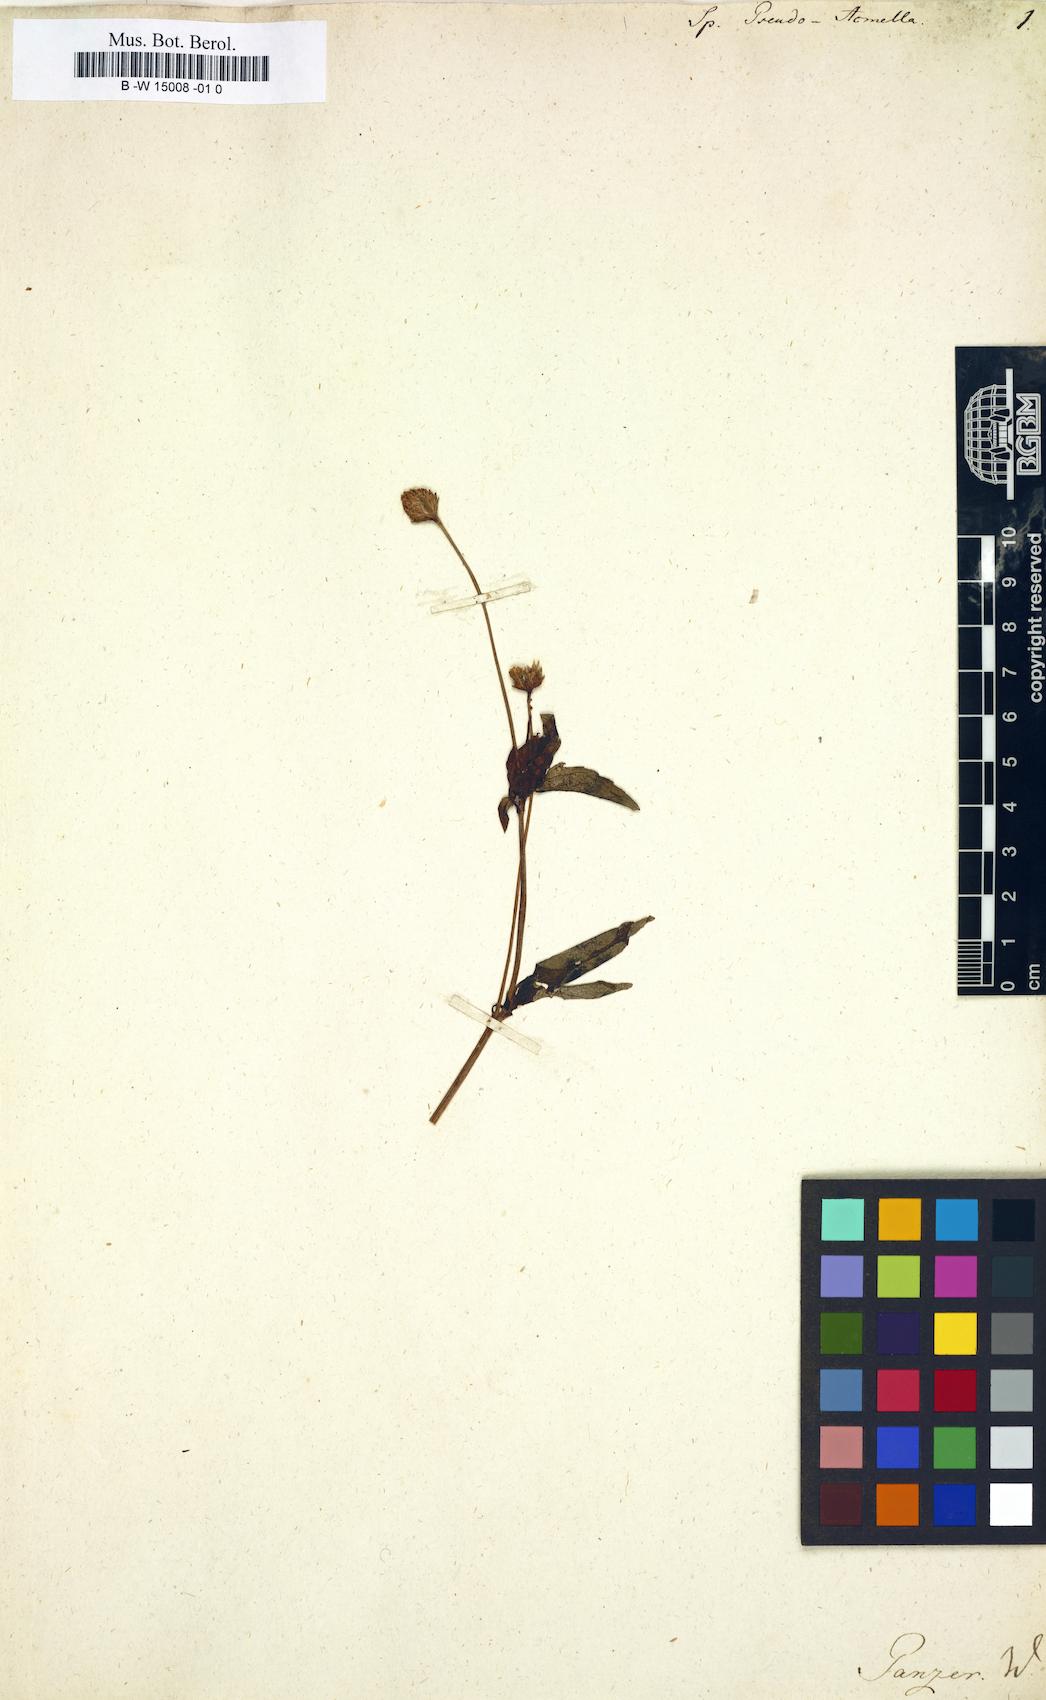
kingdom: Plantae
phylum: Tracheophyta
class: Magnoliopsida
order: Asterales
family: Asteraceae
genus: Spilanthes
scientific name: Spilanthes pseudoacmella
